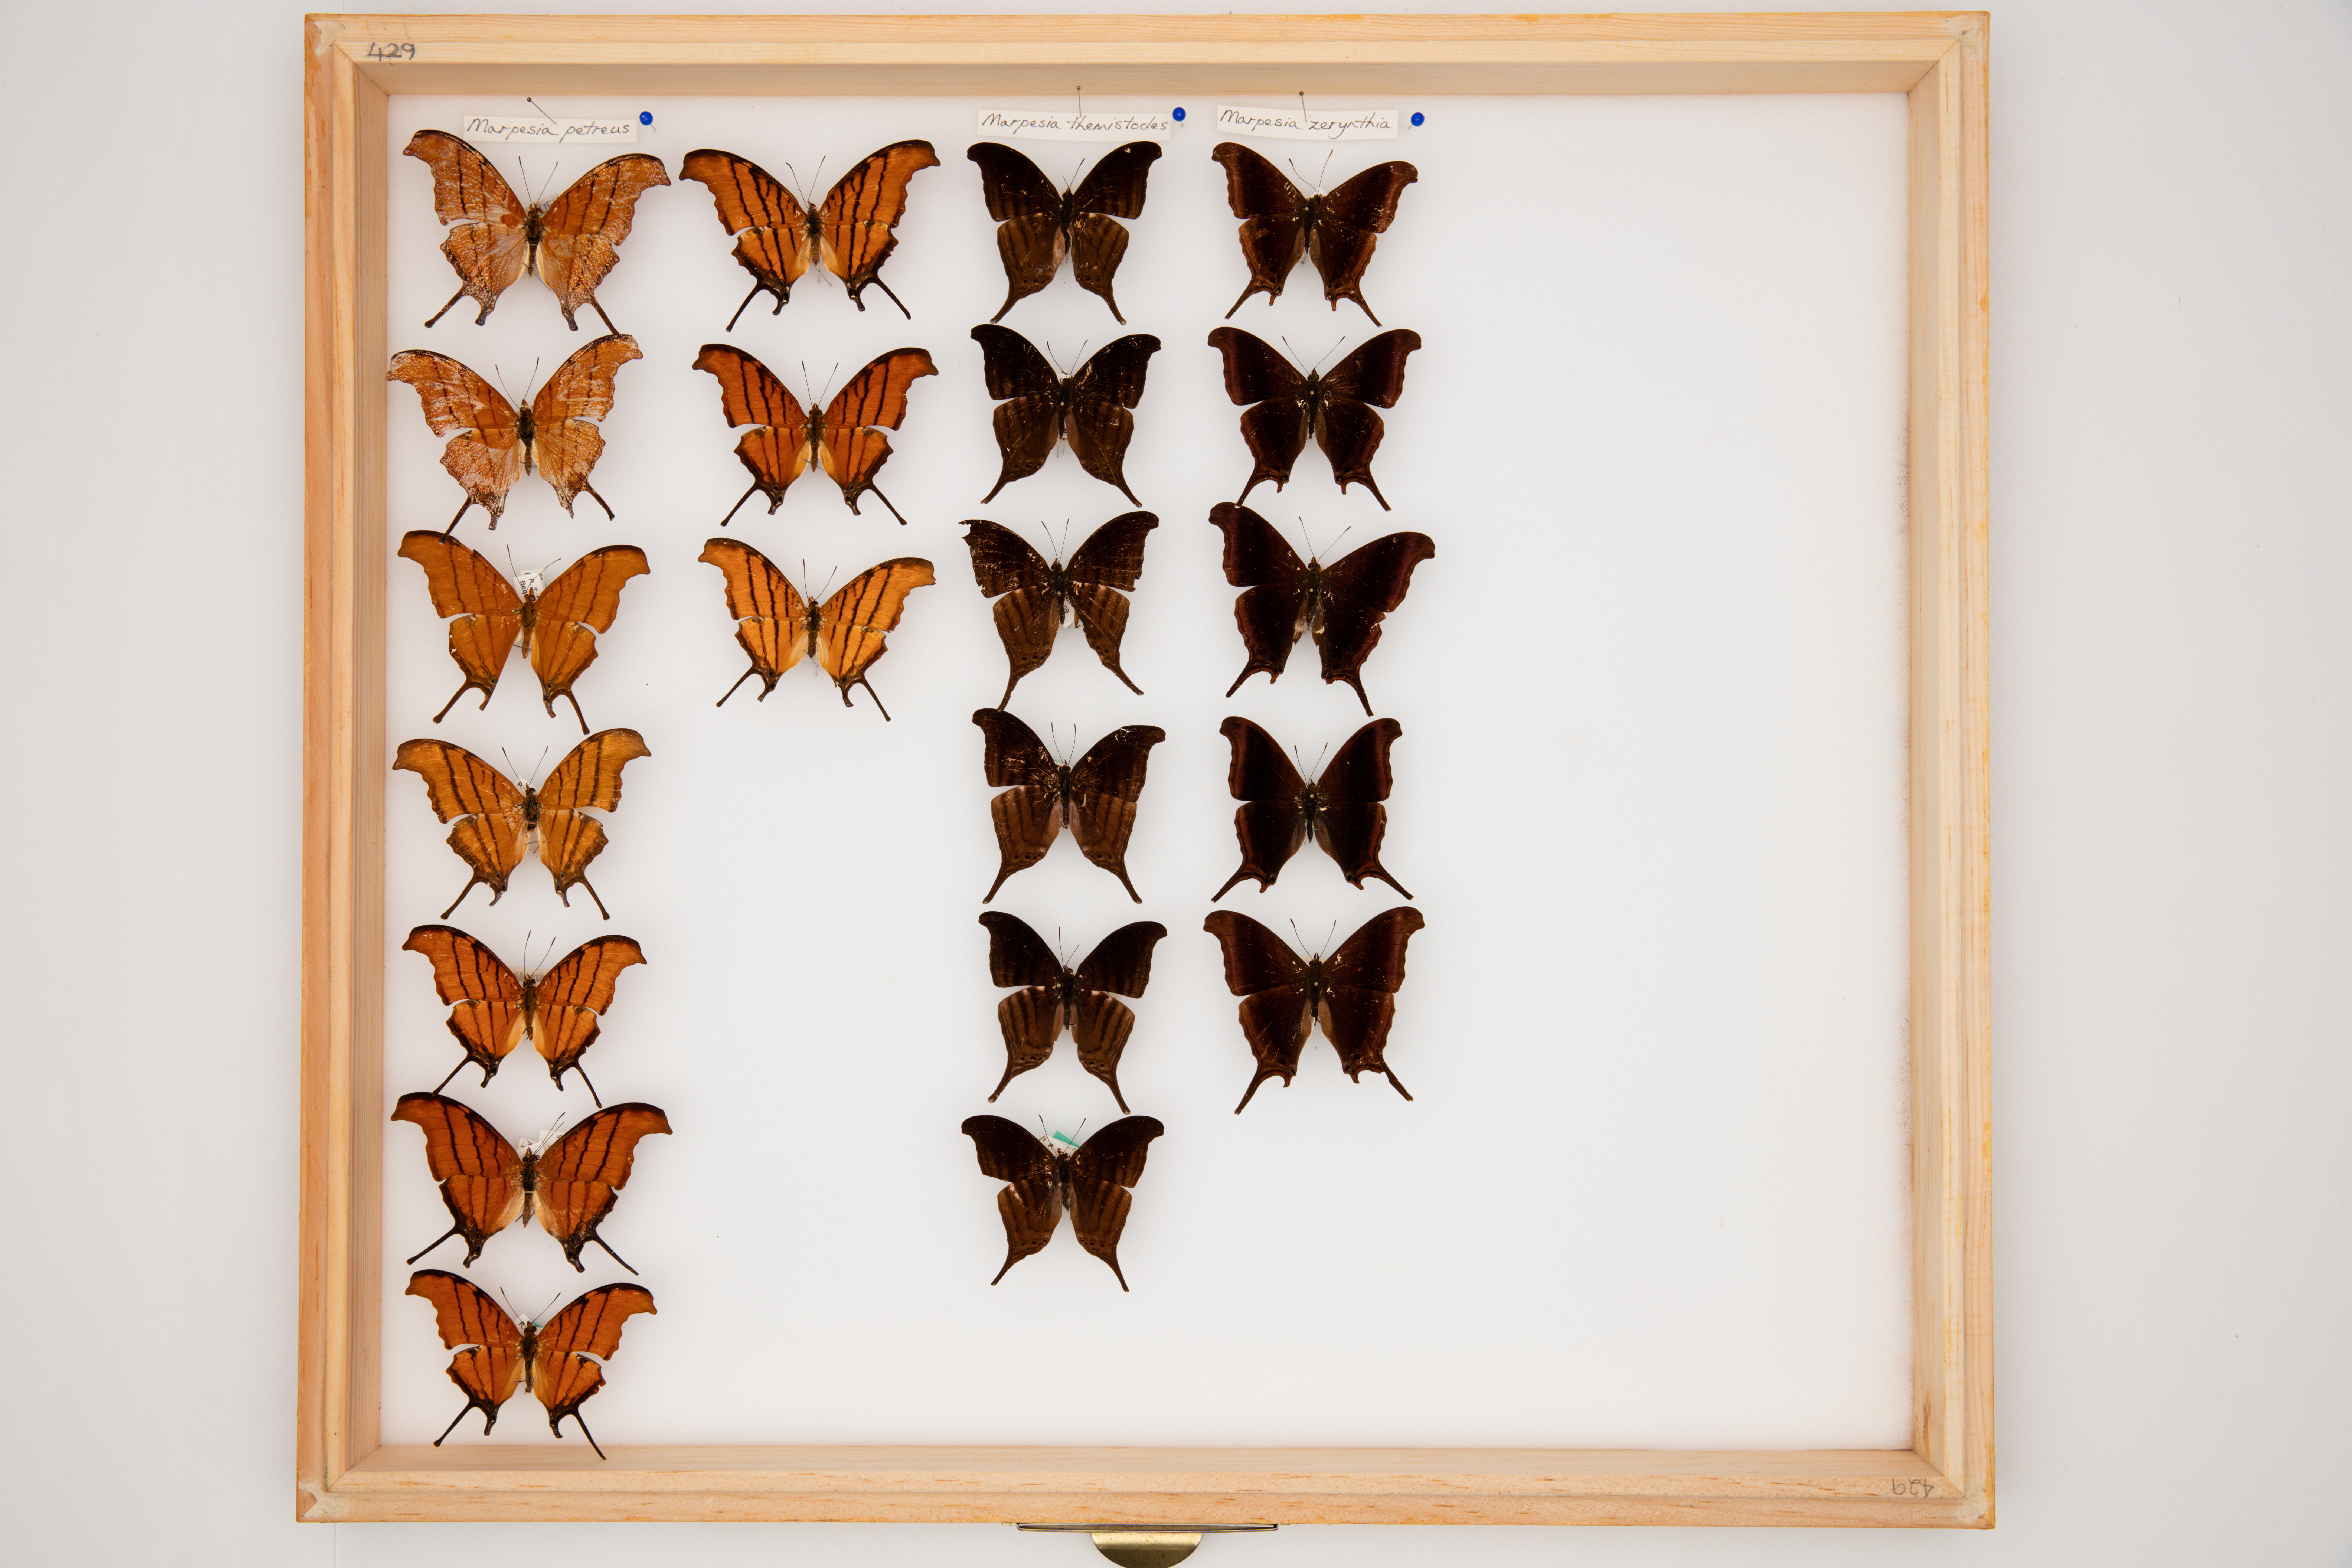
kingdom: Animalia
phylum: Arthropoda
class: Insecta
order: Lepidoptera
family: Nymphalidae
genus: Marpesia
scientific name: Marpesia petreus
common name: Red dagger wing
